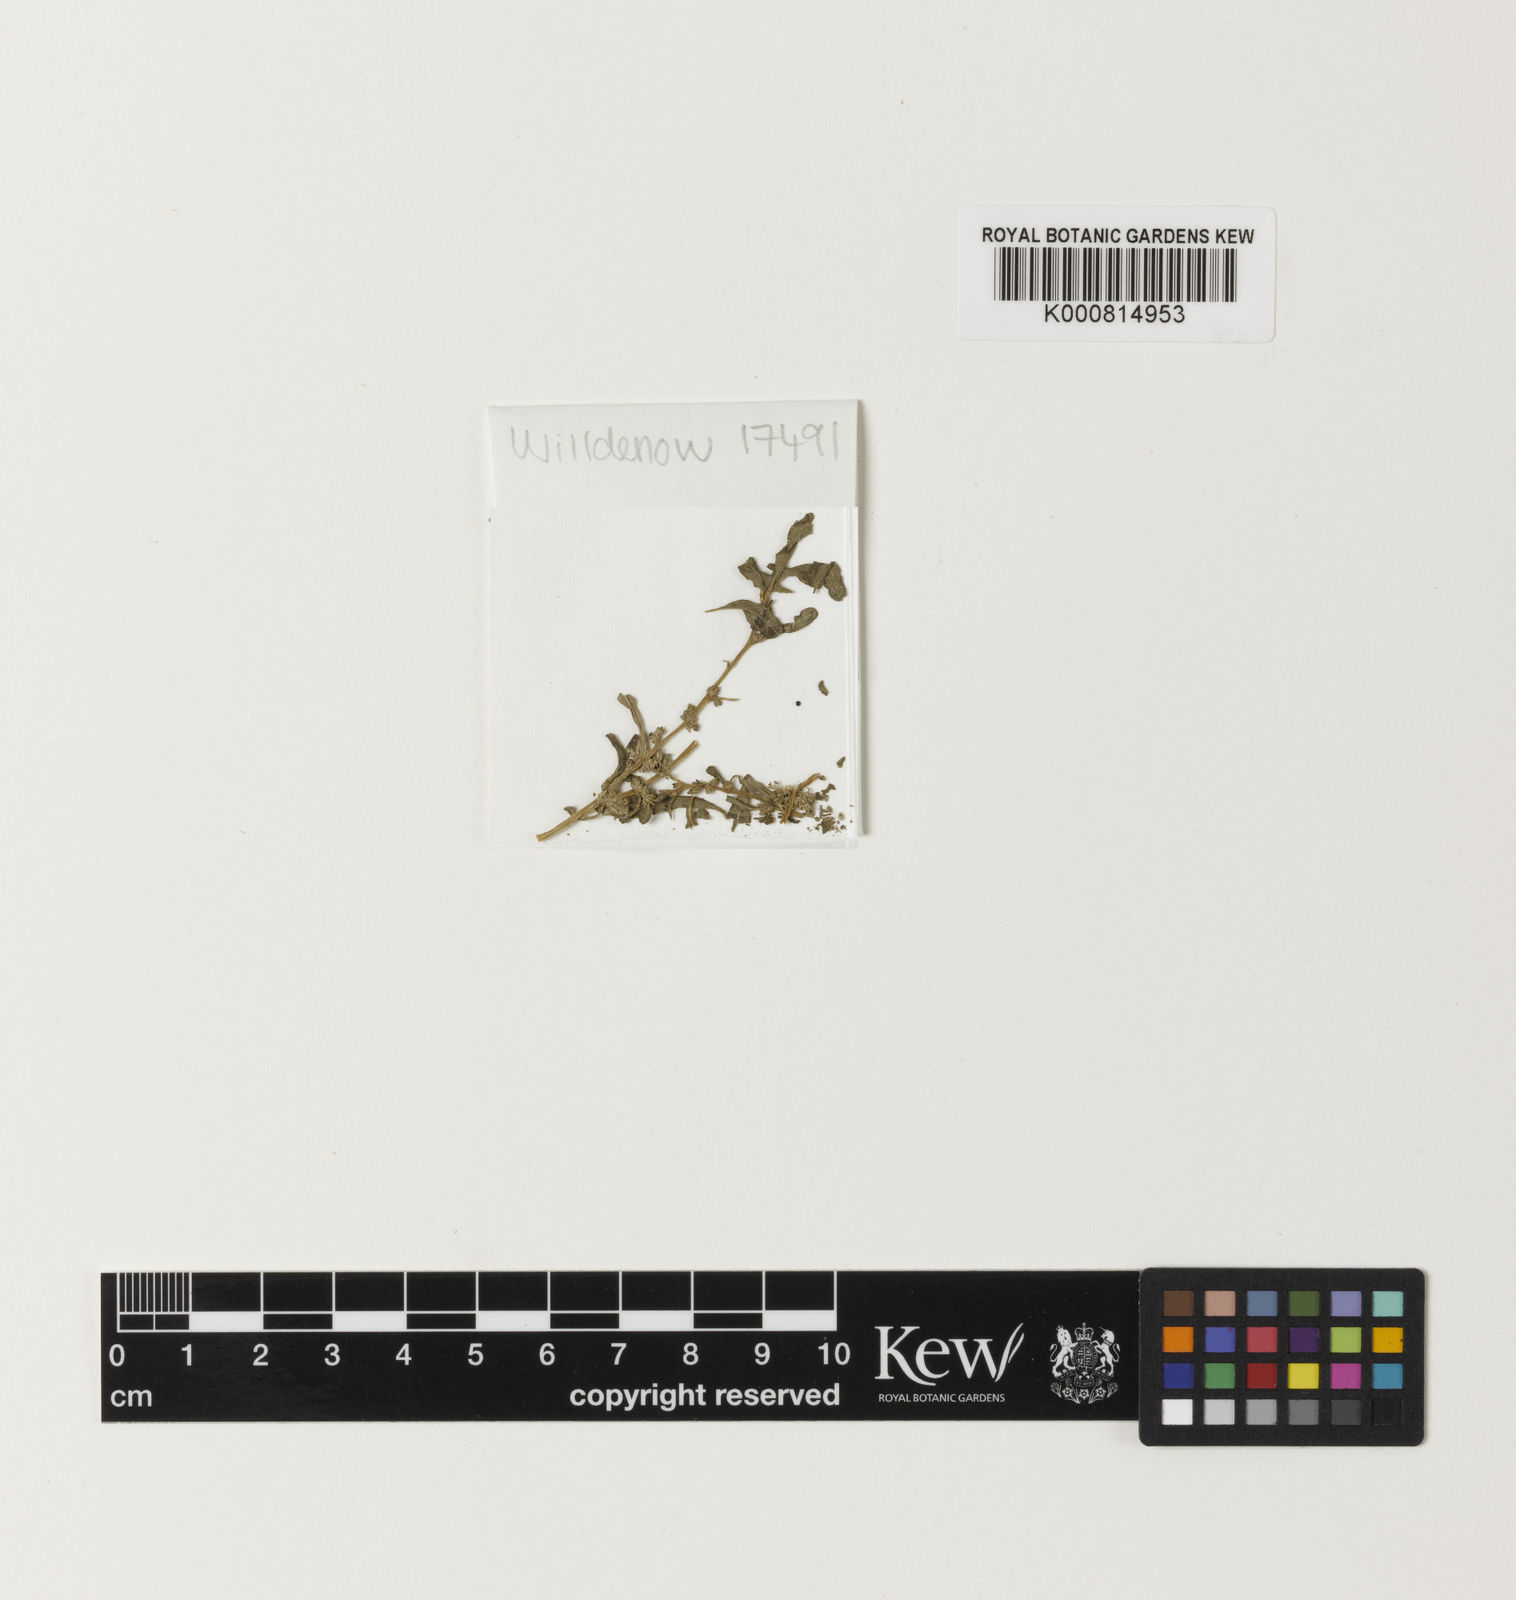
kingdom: Plantae
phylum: Tracheophyta
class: Magnoliopsida
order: Caryophyllales
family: Amaranthaceae
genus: Amaranthus
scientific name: Amaranthus graecizans
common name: Mediterranean amaranth
